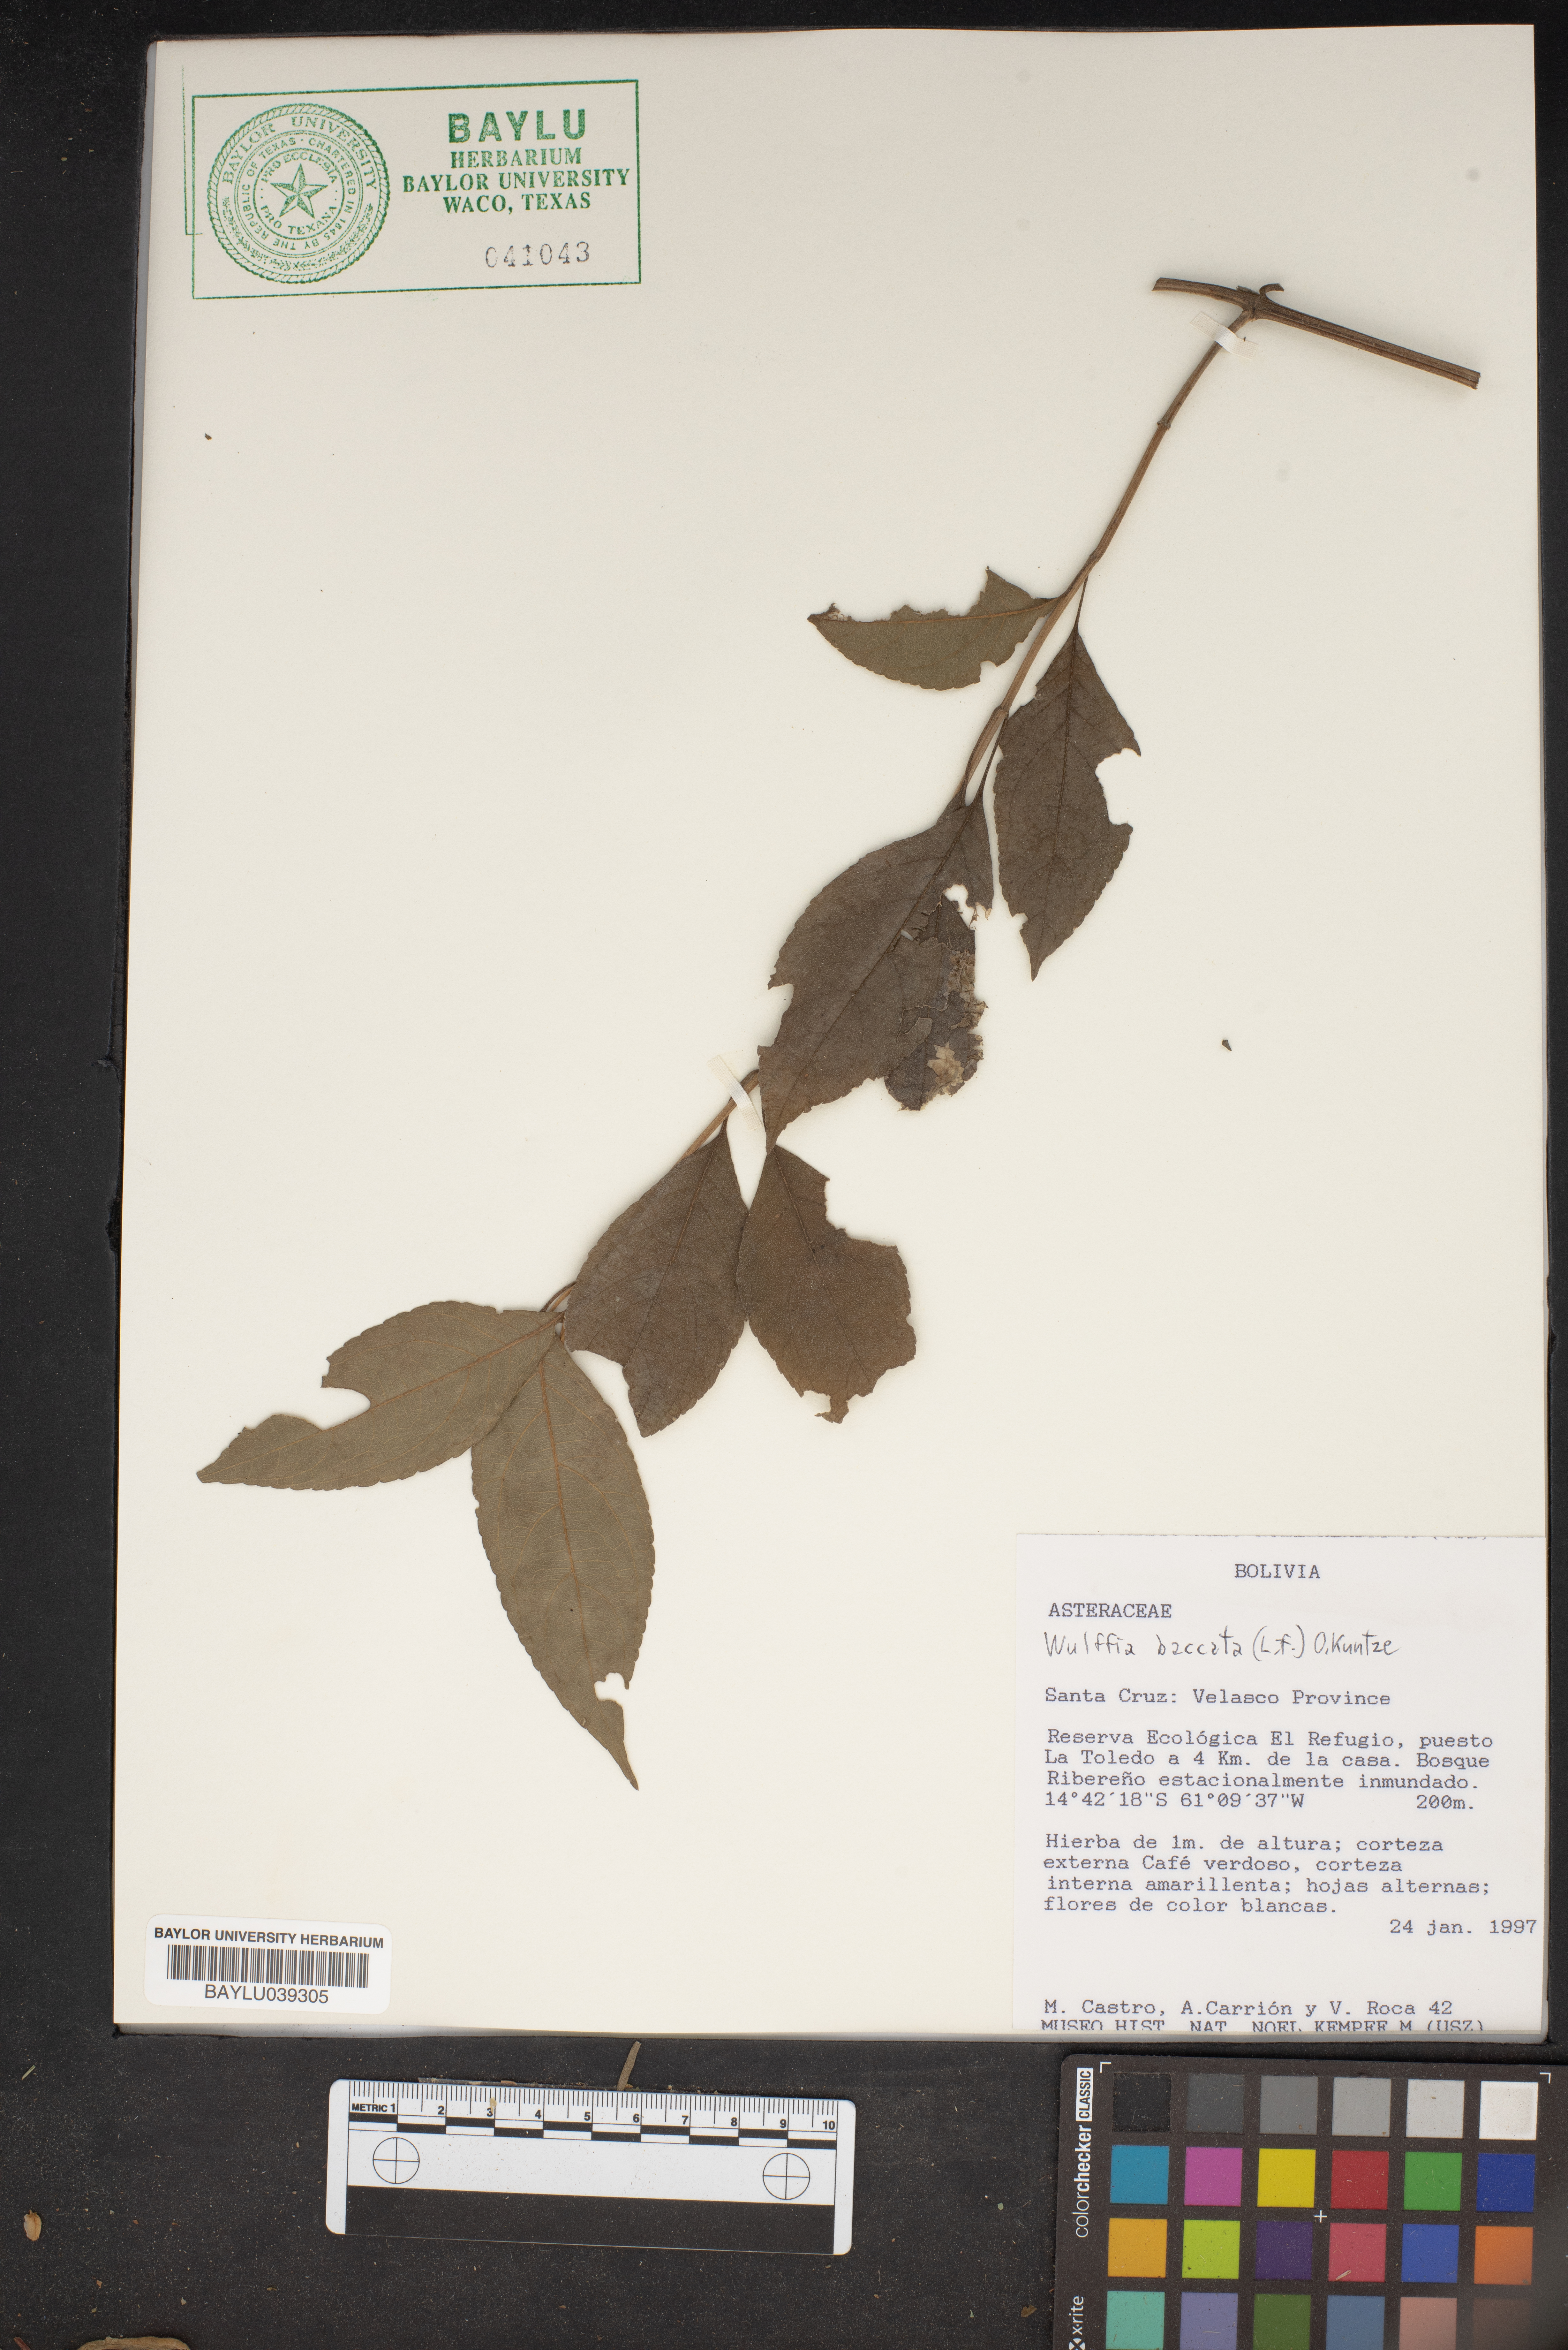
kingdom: Plantae
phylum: Tracheophyta
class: Magnoliopsida
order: Asterales
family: Asteraceae
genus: Tilesia
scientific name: Tilesia baccata
